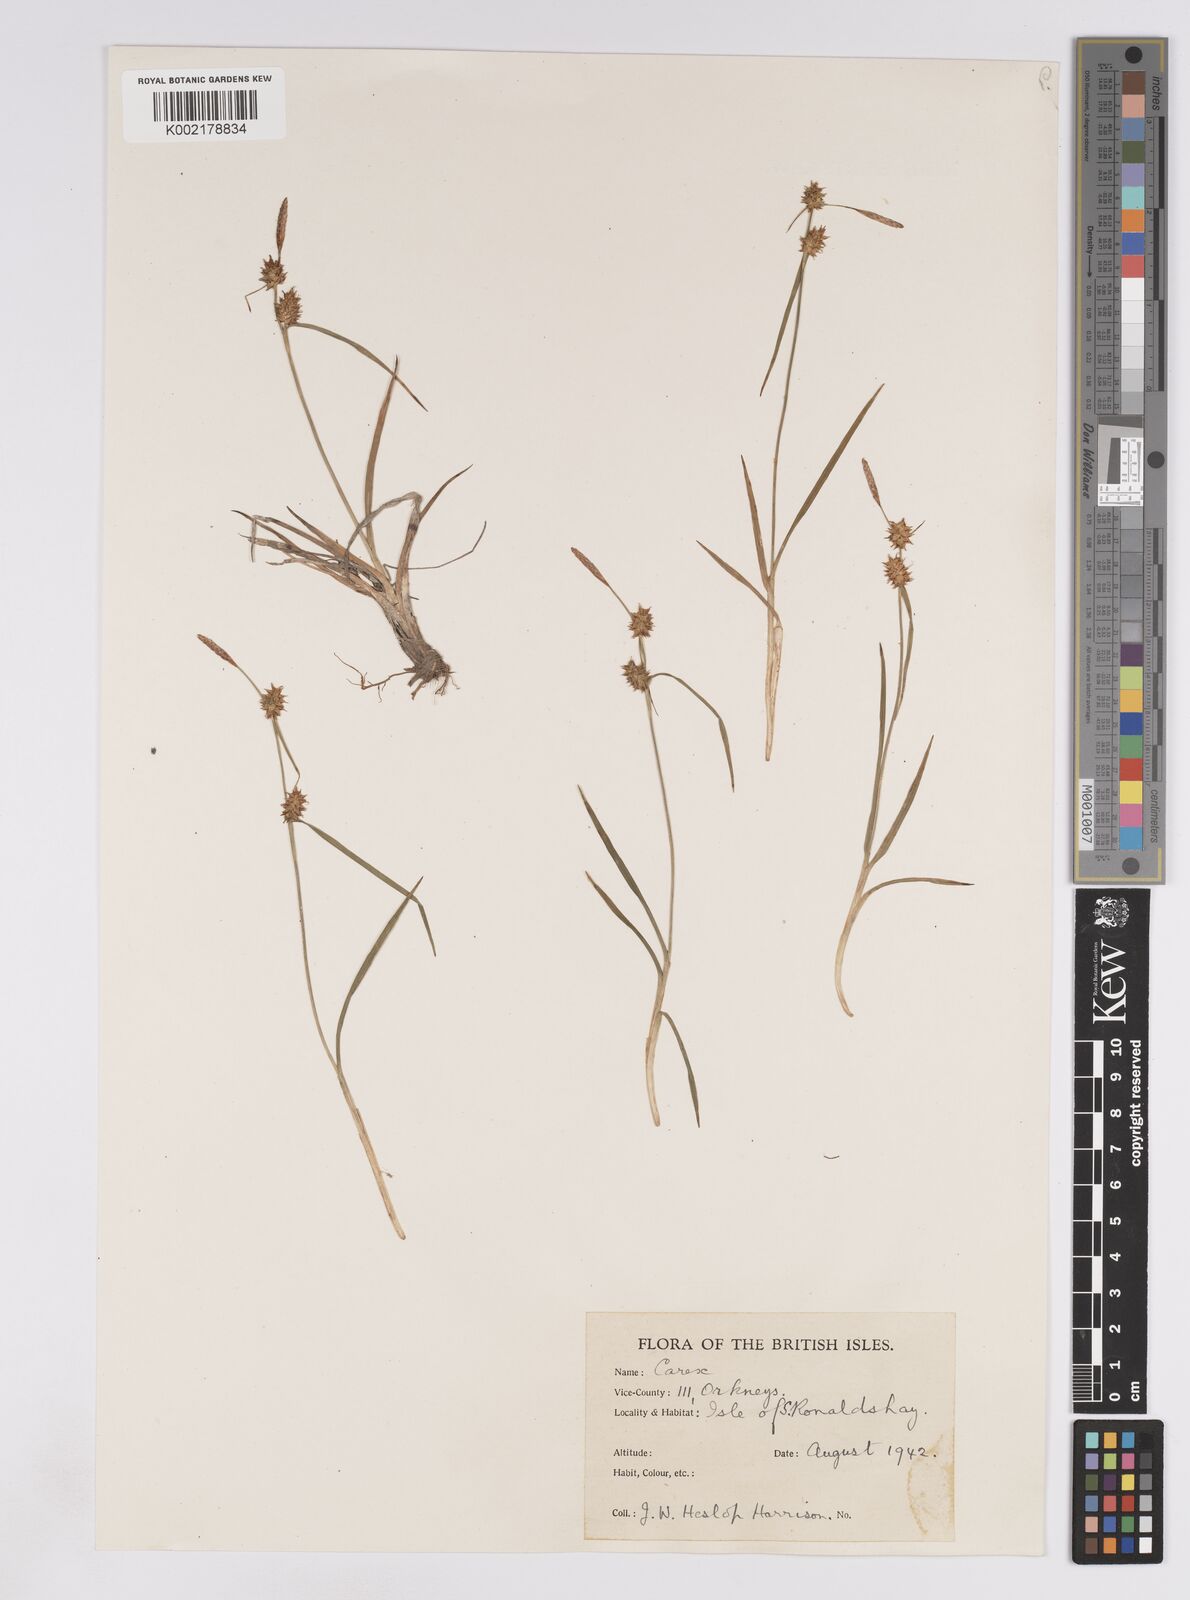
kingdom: Plantae
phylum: Tracheophyta
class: Liliopsida
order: Poales
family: Cyperaceae
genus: Carex
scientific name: Carex lepidocarpa
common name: Long-stalked yellow-sedge
